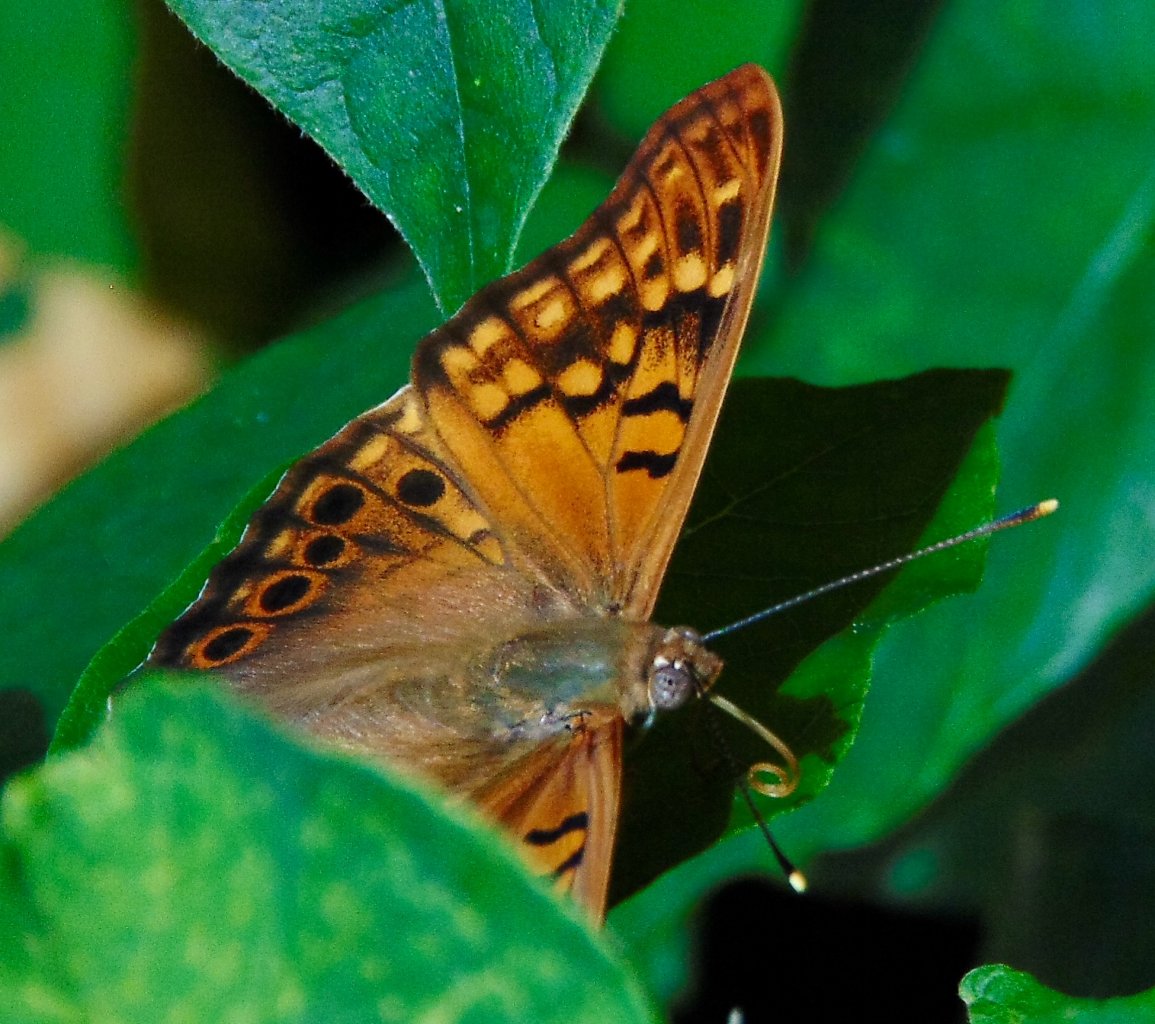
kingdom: Animalia
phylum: Arthropoda
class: Insecta
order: Lepidoptera
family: Nymphalidae
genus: Asterocampa
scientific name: Asterocampa clyton
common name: Tawny Emperor
